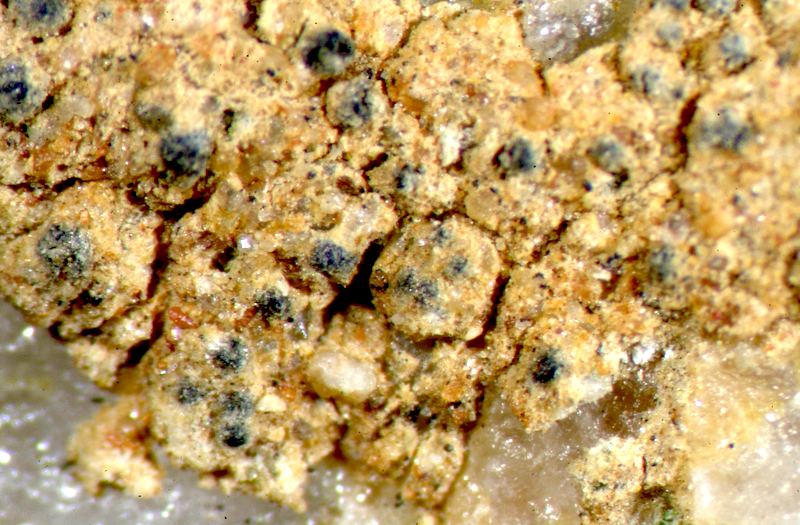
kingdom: Fungi
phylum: Ascomycota
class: Lecanoromycetes
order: Caliciales
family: Caliciaceae
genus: Buellia
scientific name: Buellia
